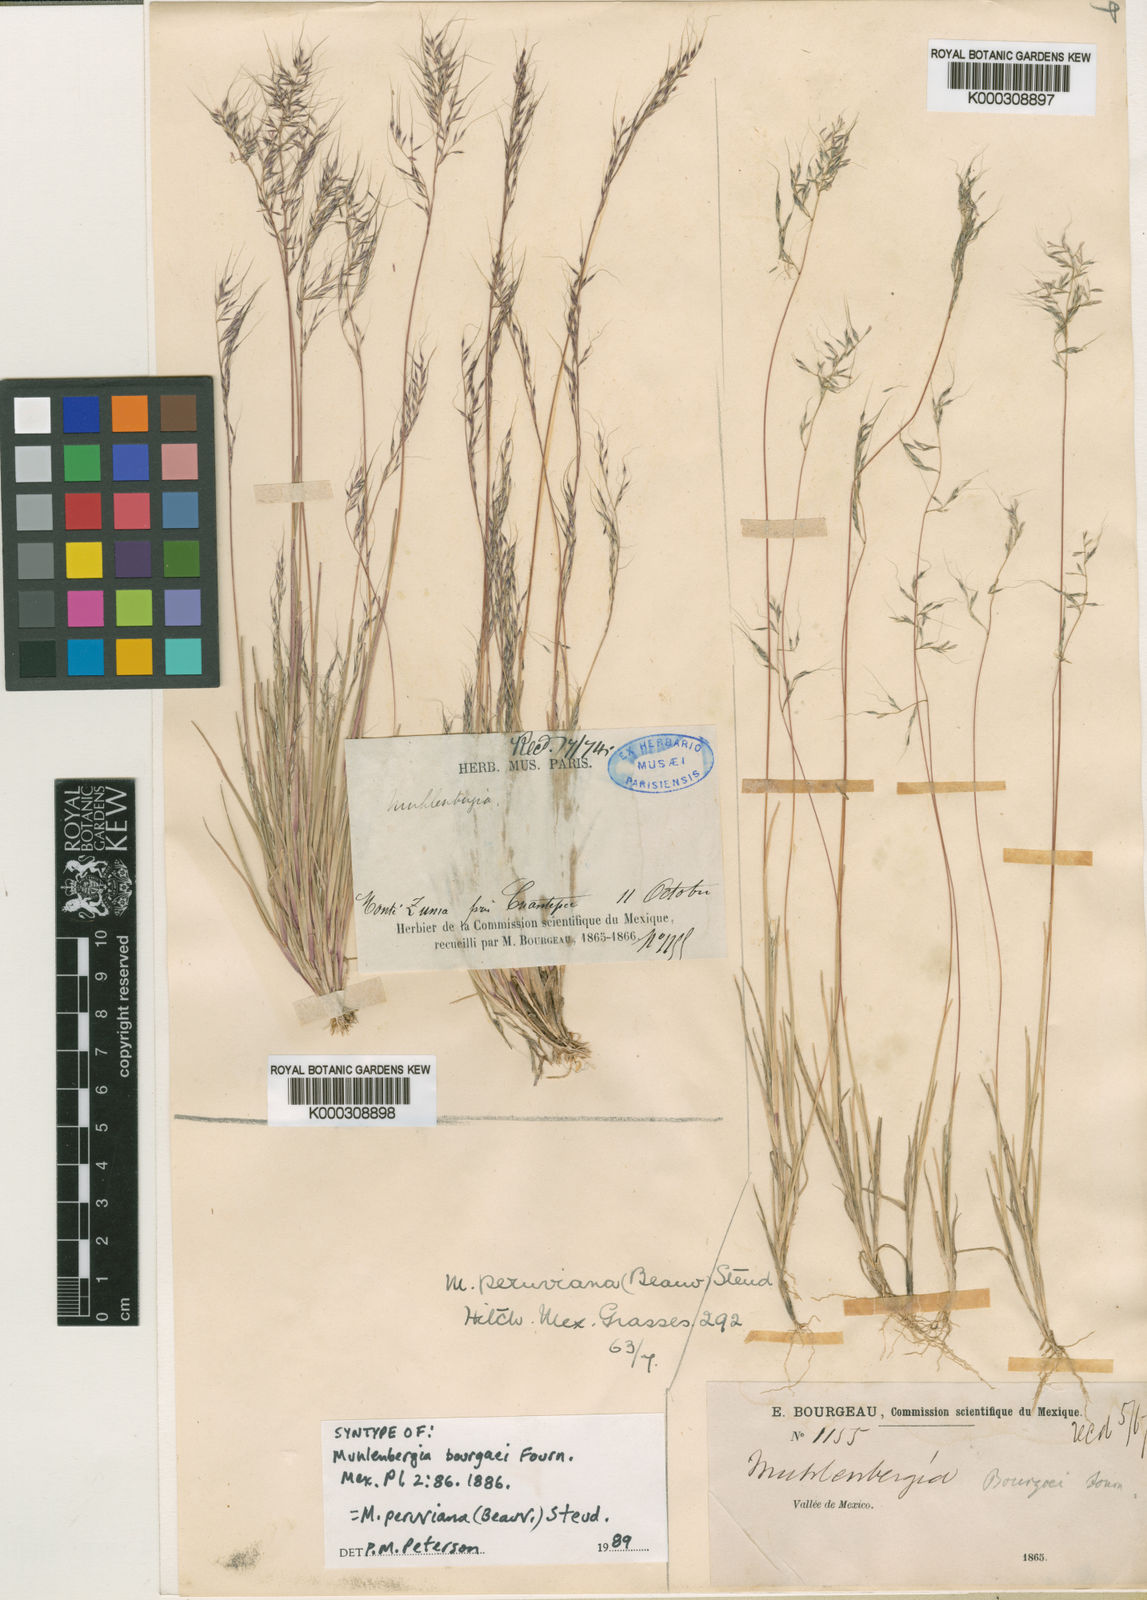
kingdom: Plantae
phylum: Tracheophyta
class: Liliopsida
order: Poales
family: Poaceae
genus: Muhlenbergia
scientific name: Muhlenbergia peruviana
